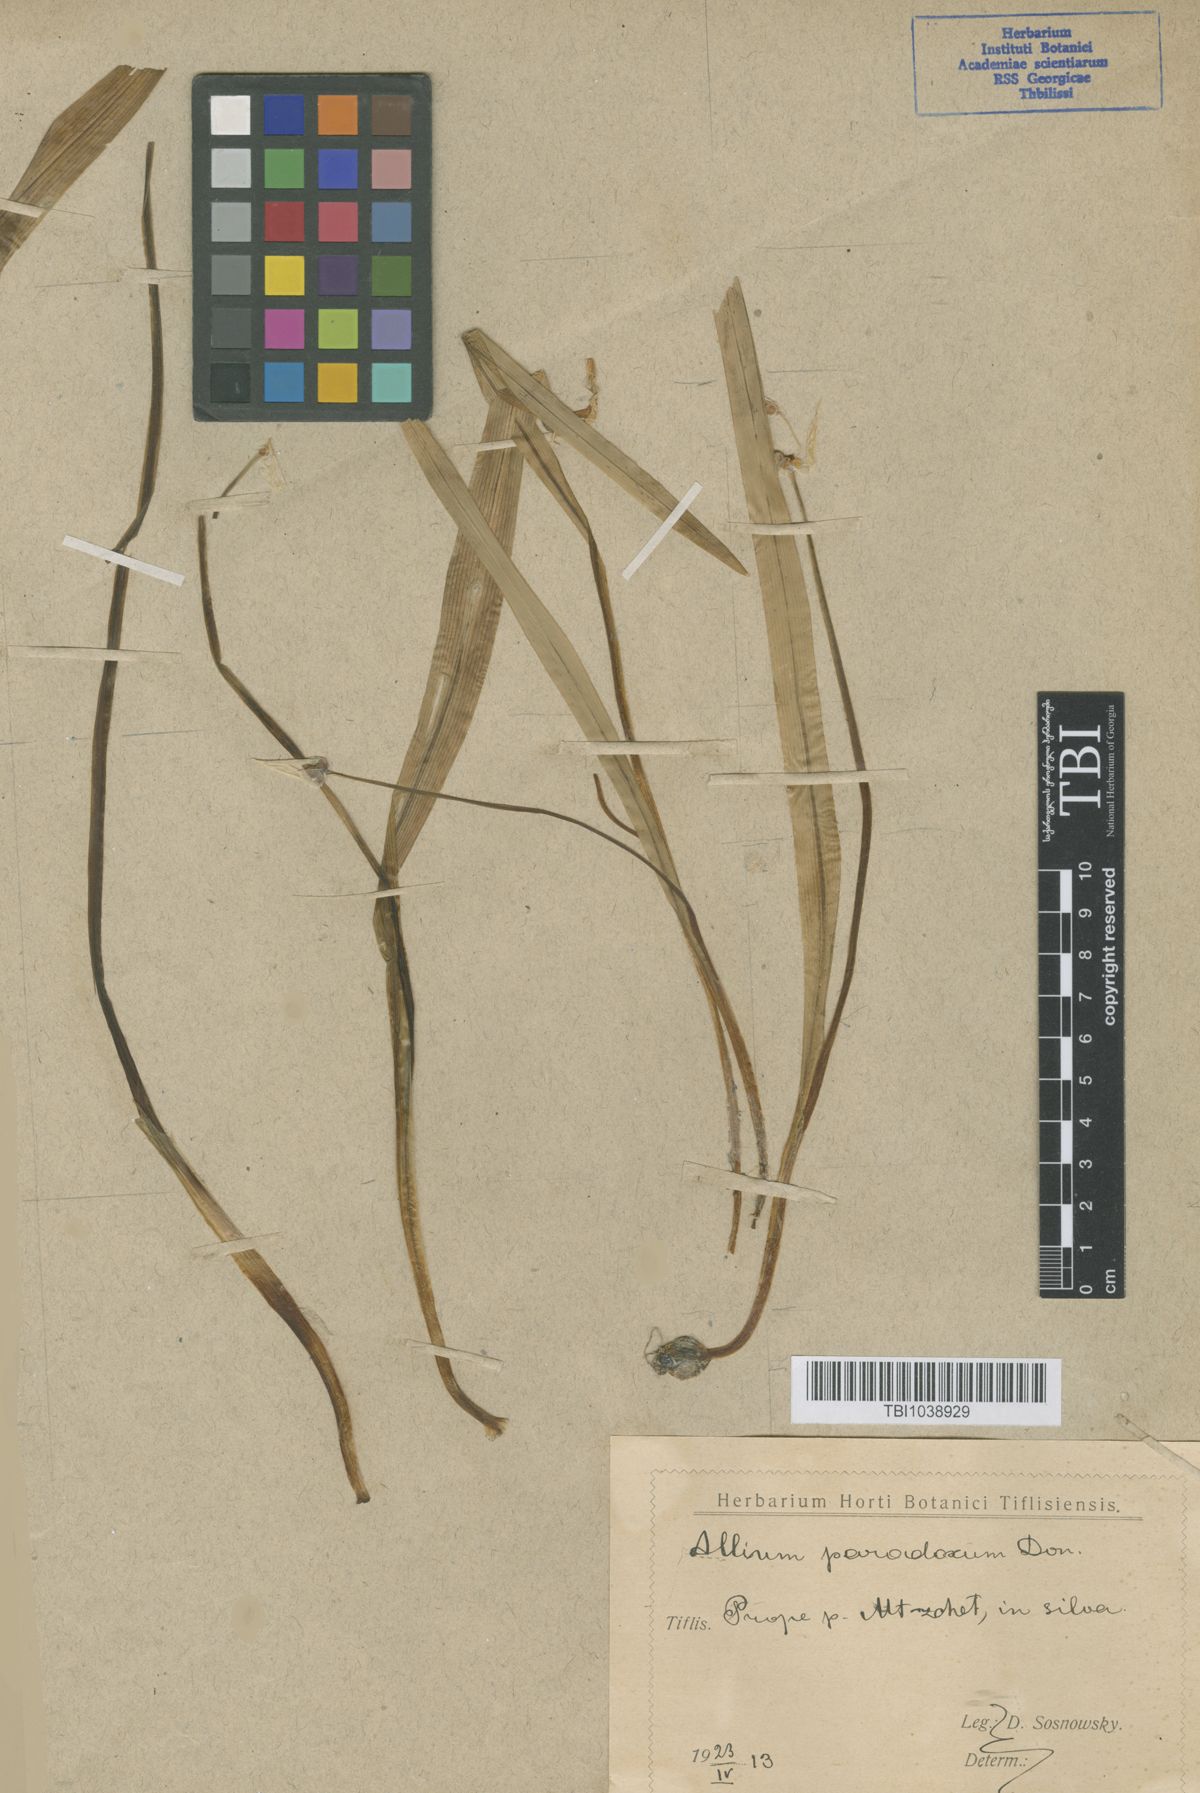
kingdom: Plantae
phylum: Tracheophyta
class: Liliopsida
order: Asparagales
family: Amaryllidaceae
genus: Allium
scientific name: Allium paradoxum
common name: Few-flowered garlic
